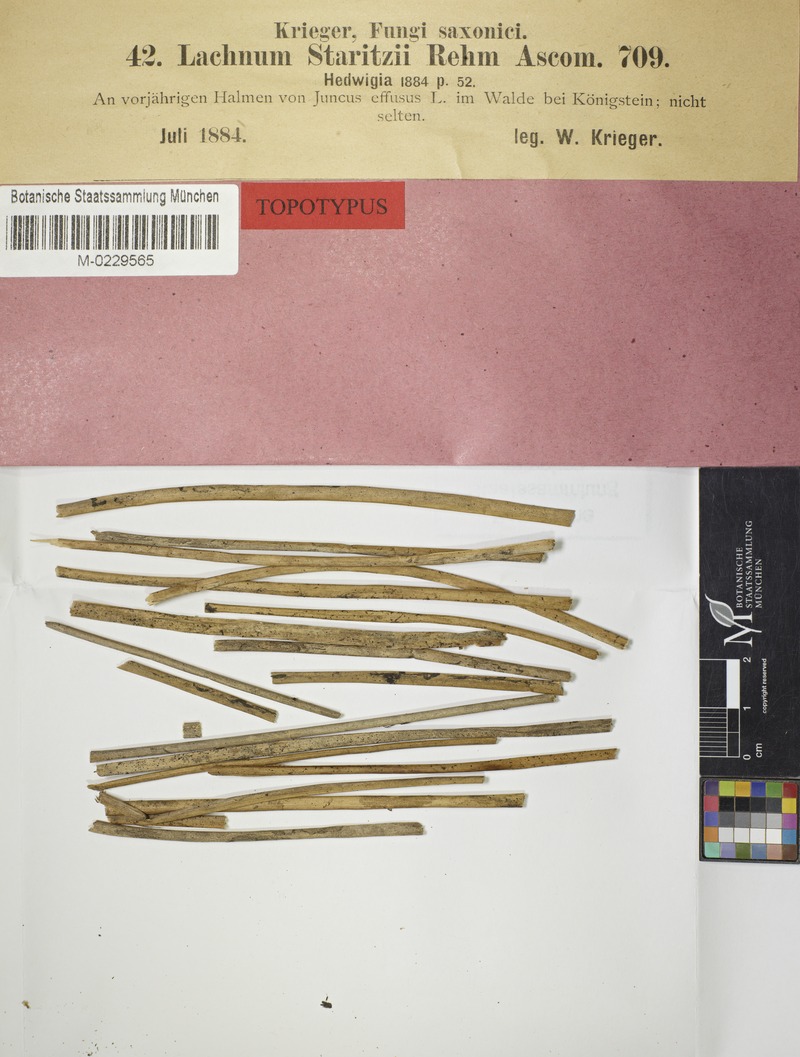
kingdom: Fungi
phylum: Ascomycota
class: Leotiomycetes
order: Helotiales
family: Lachnaceae
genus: Lachnum
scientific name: Lachnum diminutum
